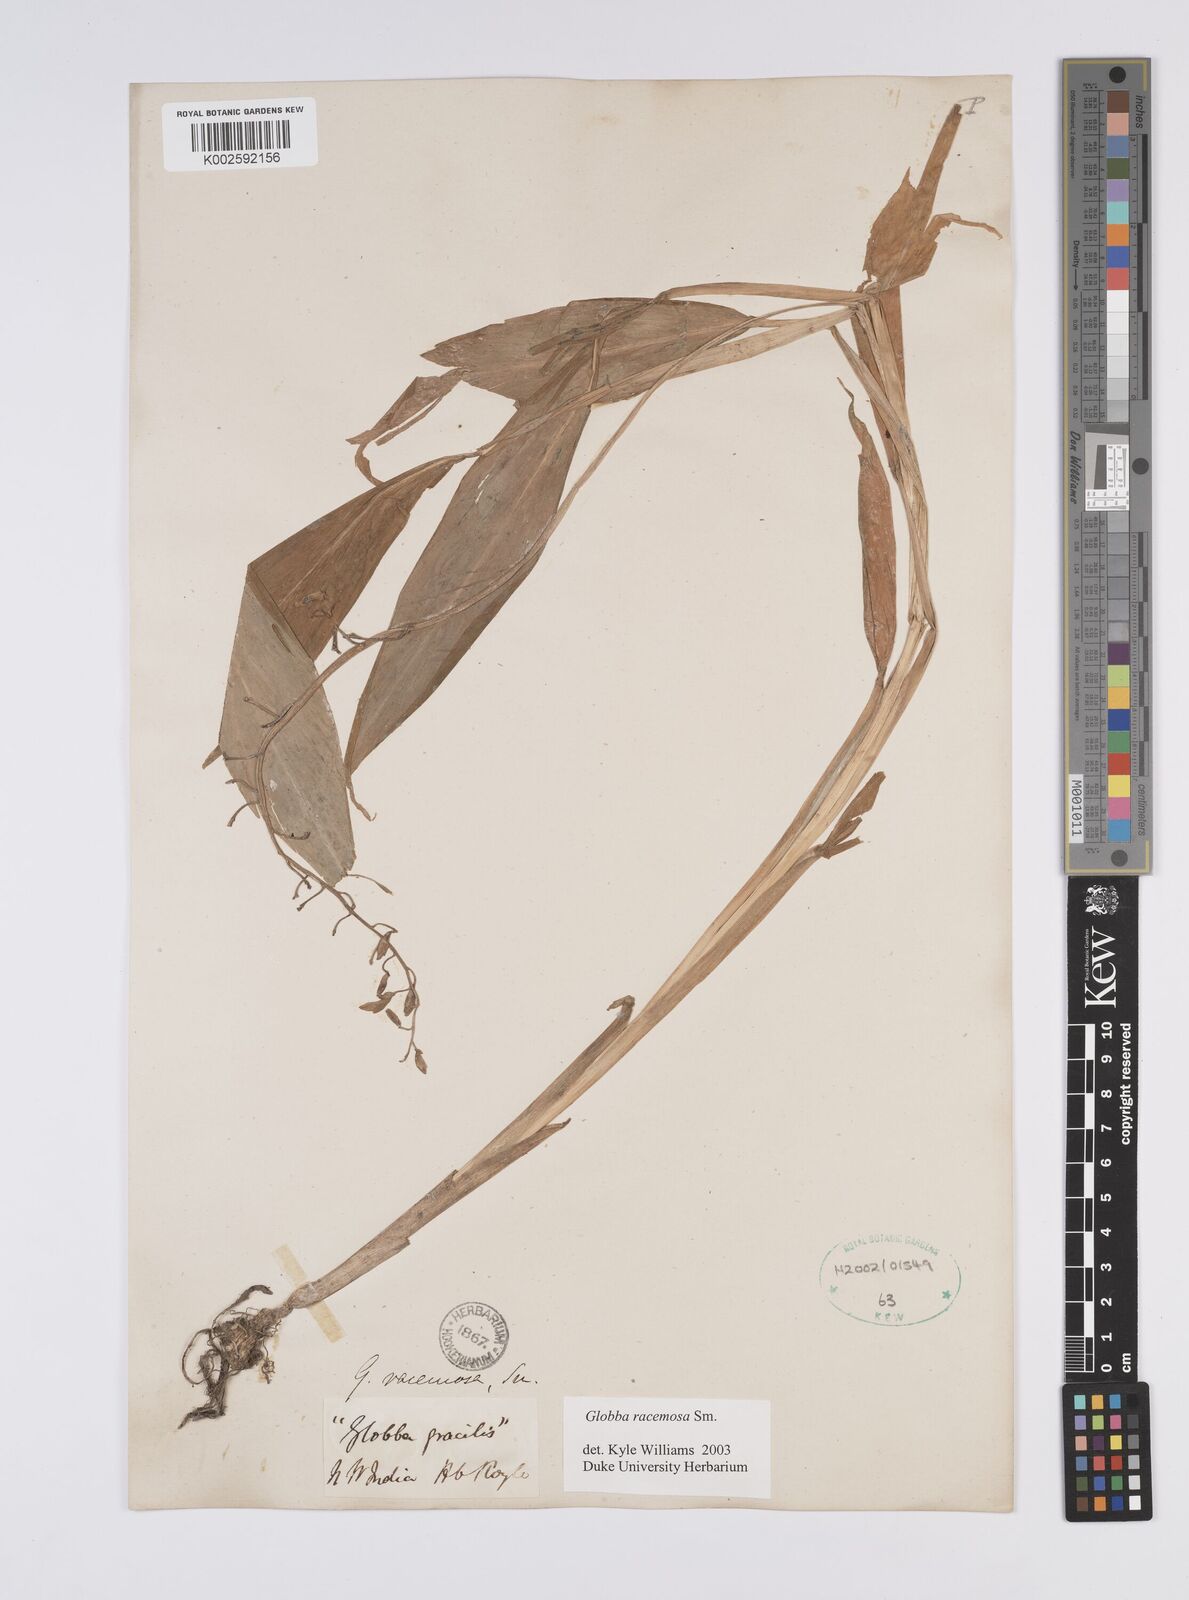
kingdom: Plantae
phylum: Tracheophyta
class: Liliopsida
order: Zingiberales
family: Zingiberaceae
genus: Globba
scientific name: Globba racemosa
